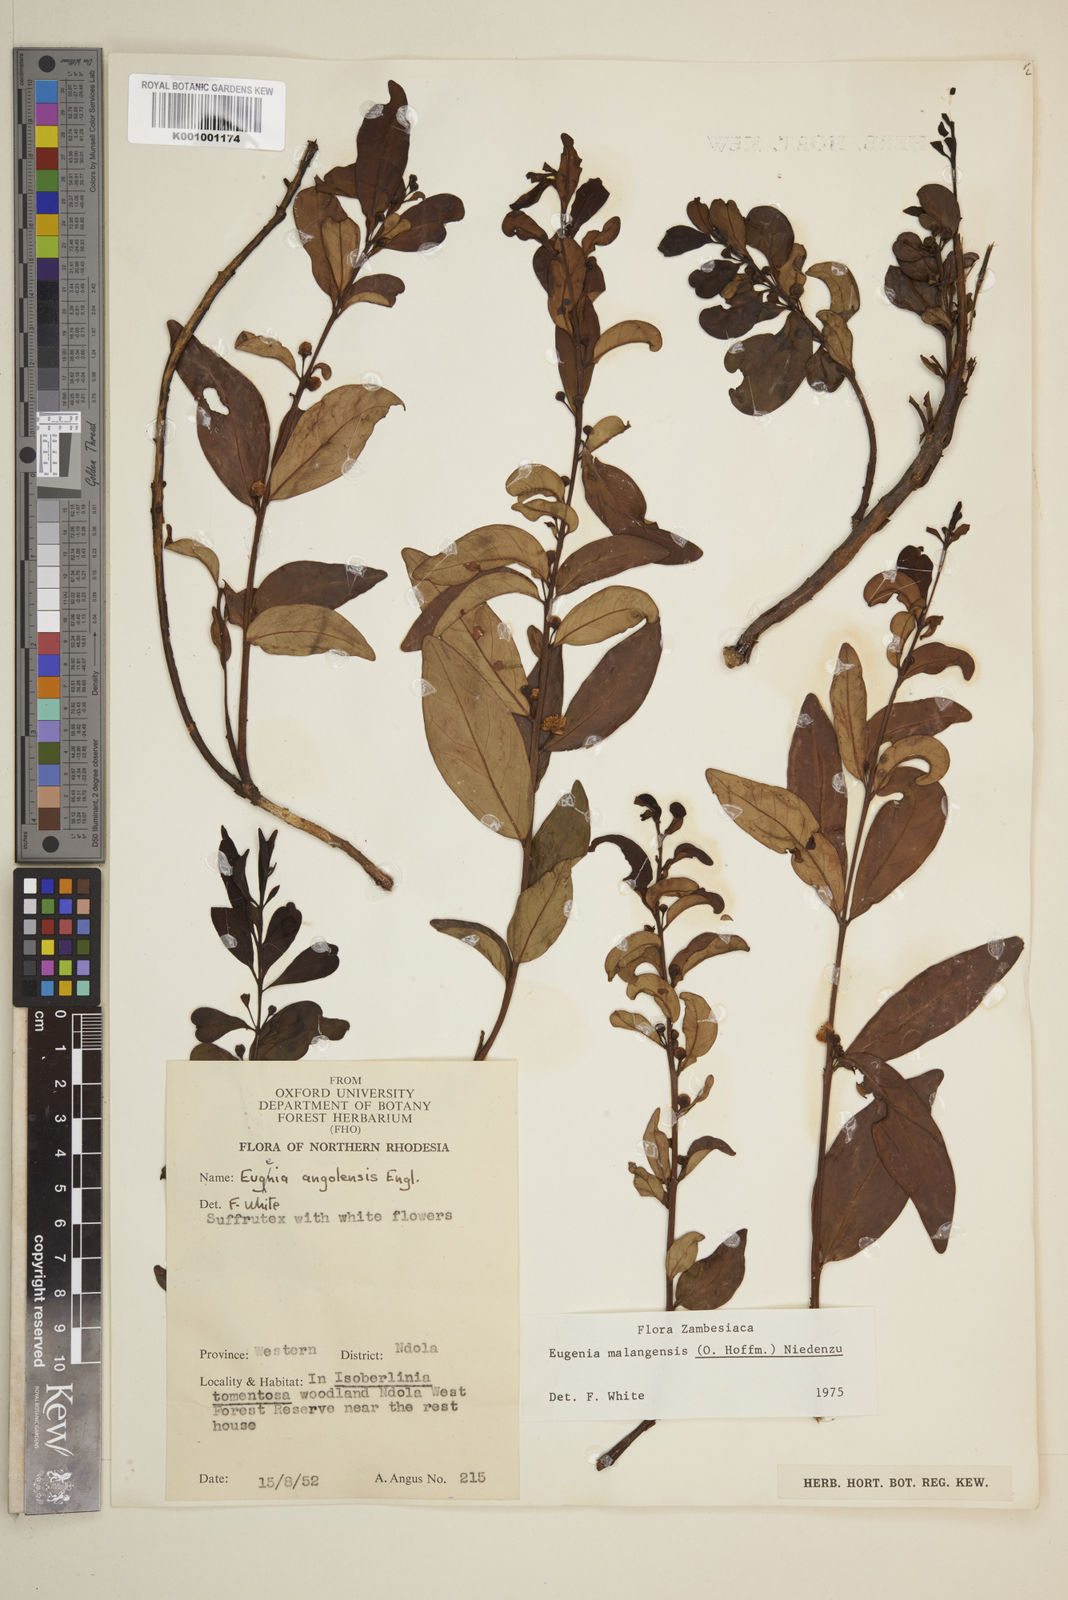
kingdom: Plantae
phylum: Tracheophyta
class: Magnoliopsida
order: Myrtales
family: Myrtaceae
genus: Eugenia
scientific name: Eugenia malangensis
